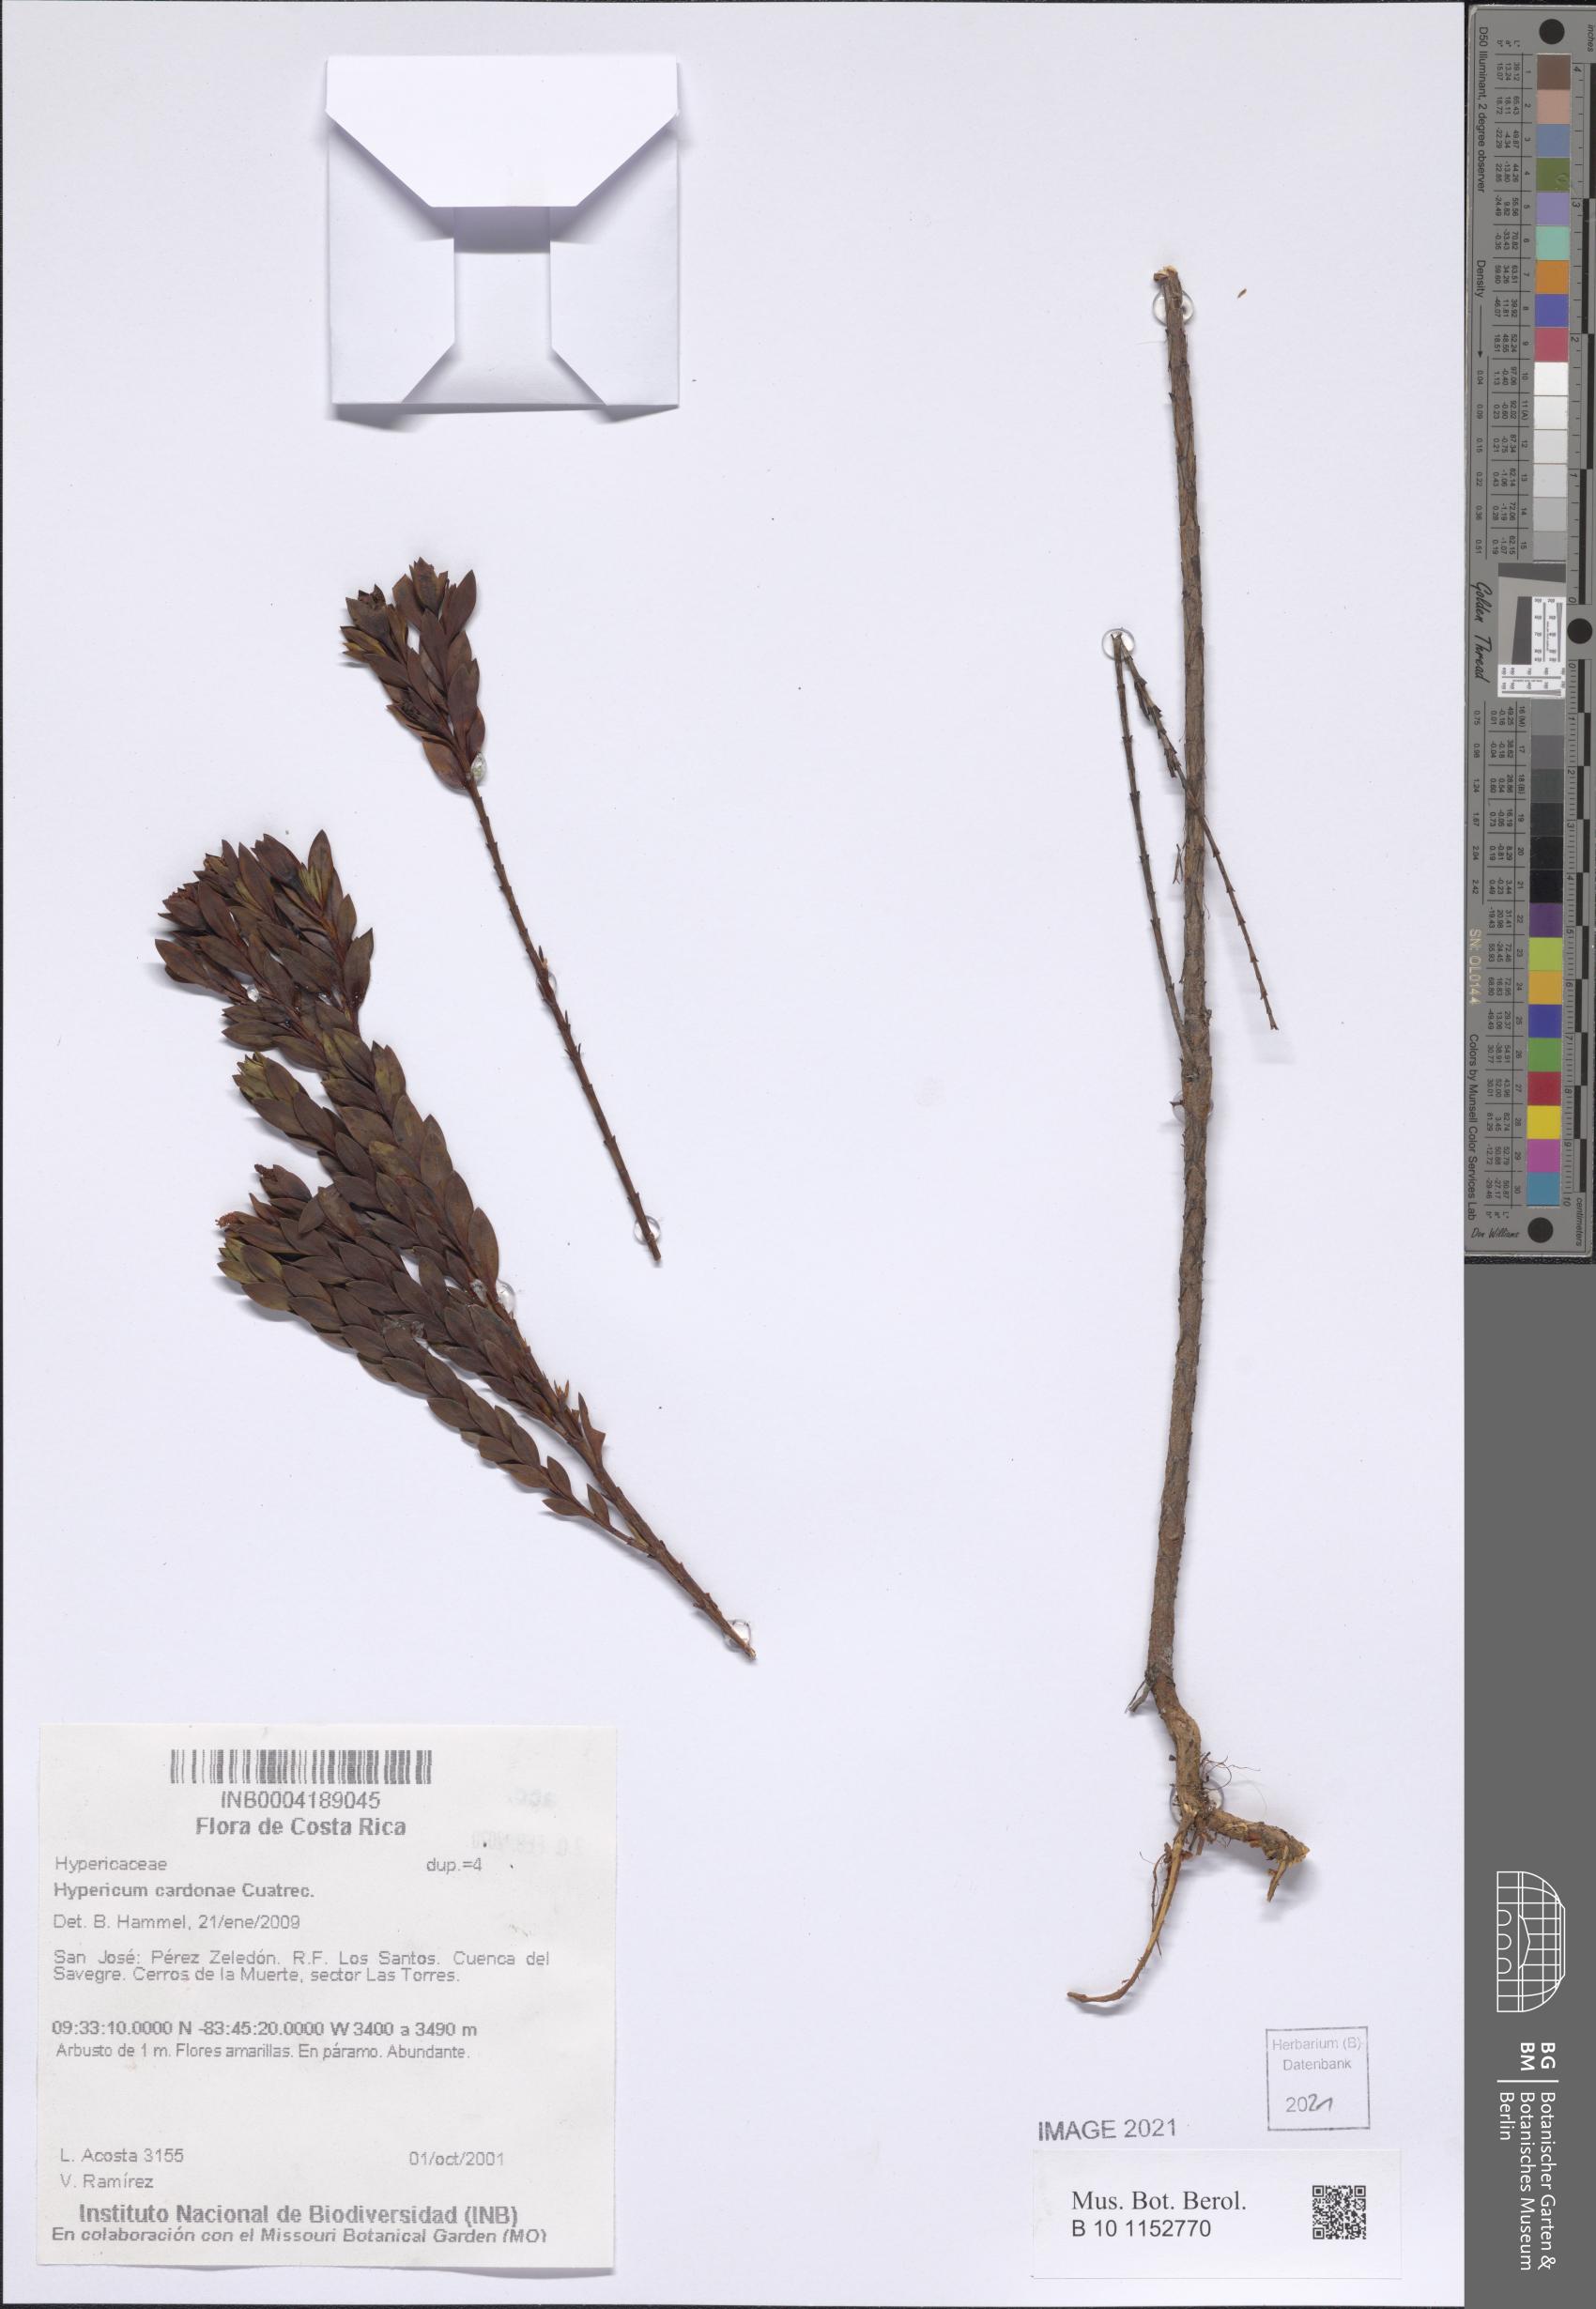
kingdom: Plantae
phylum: Tracheophyta
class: Magnoliopsida
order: Malpighiales
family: Hypericaceae
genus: Hypericum
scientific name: Hypericum cardonae
